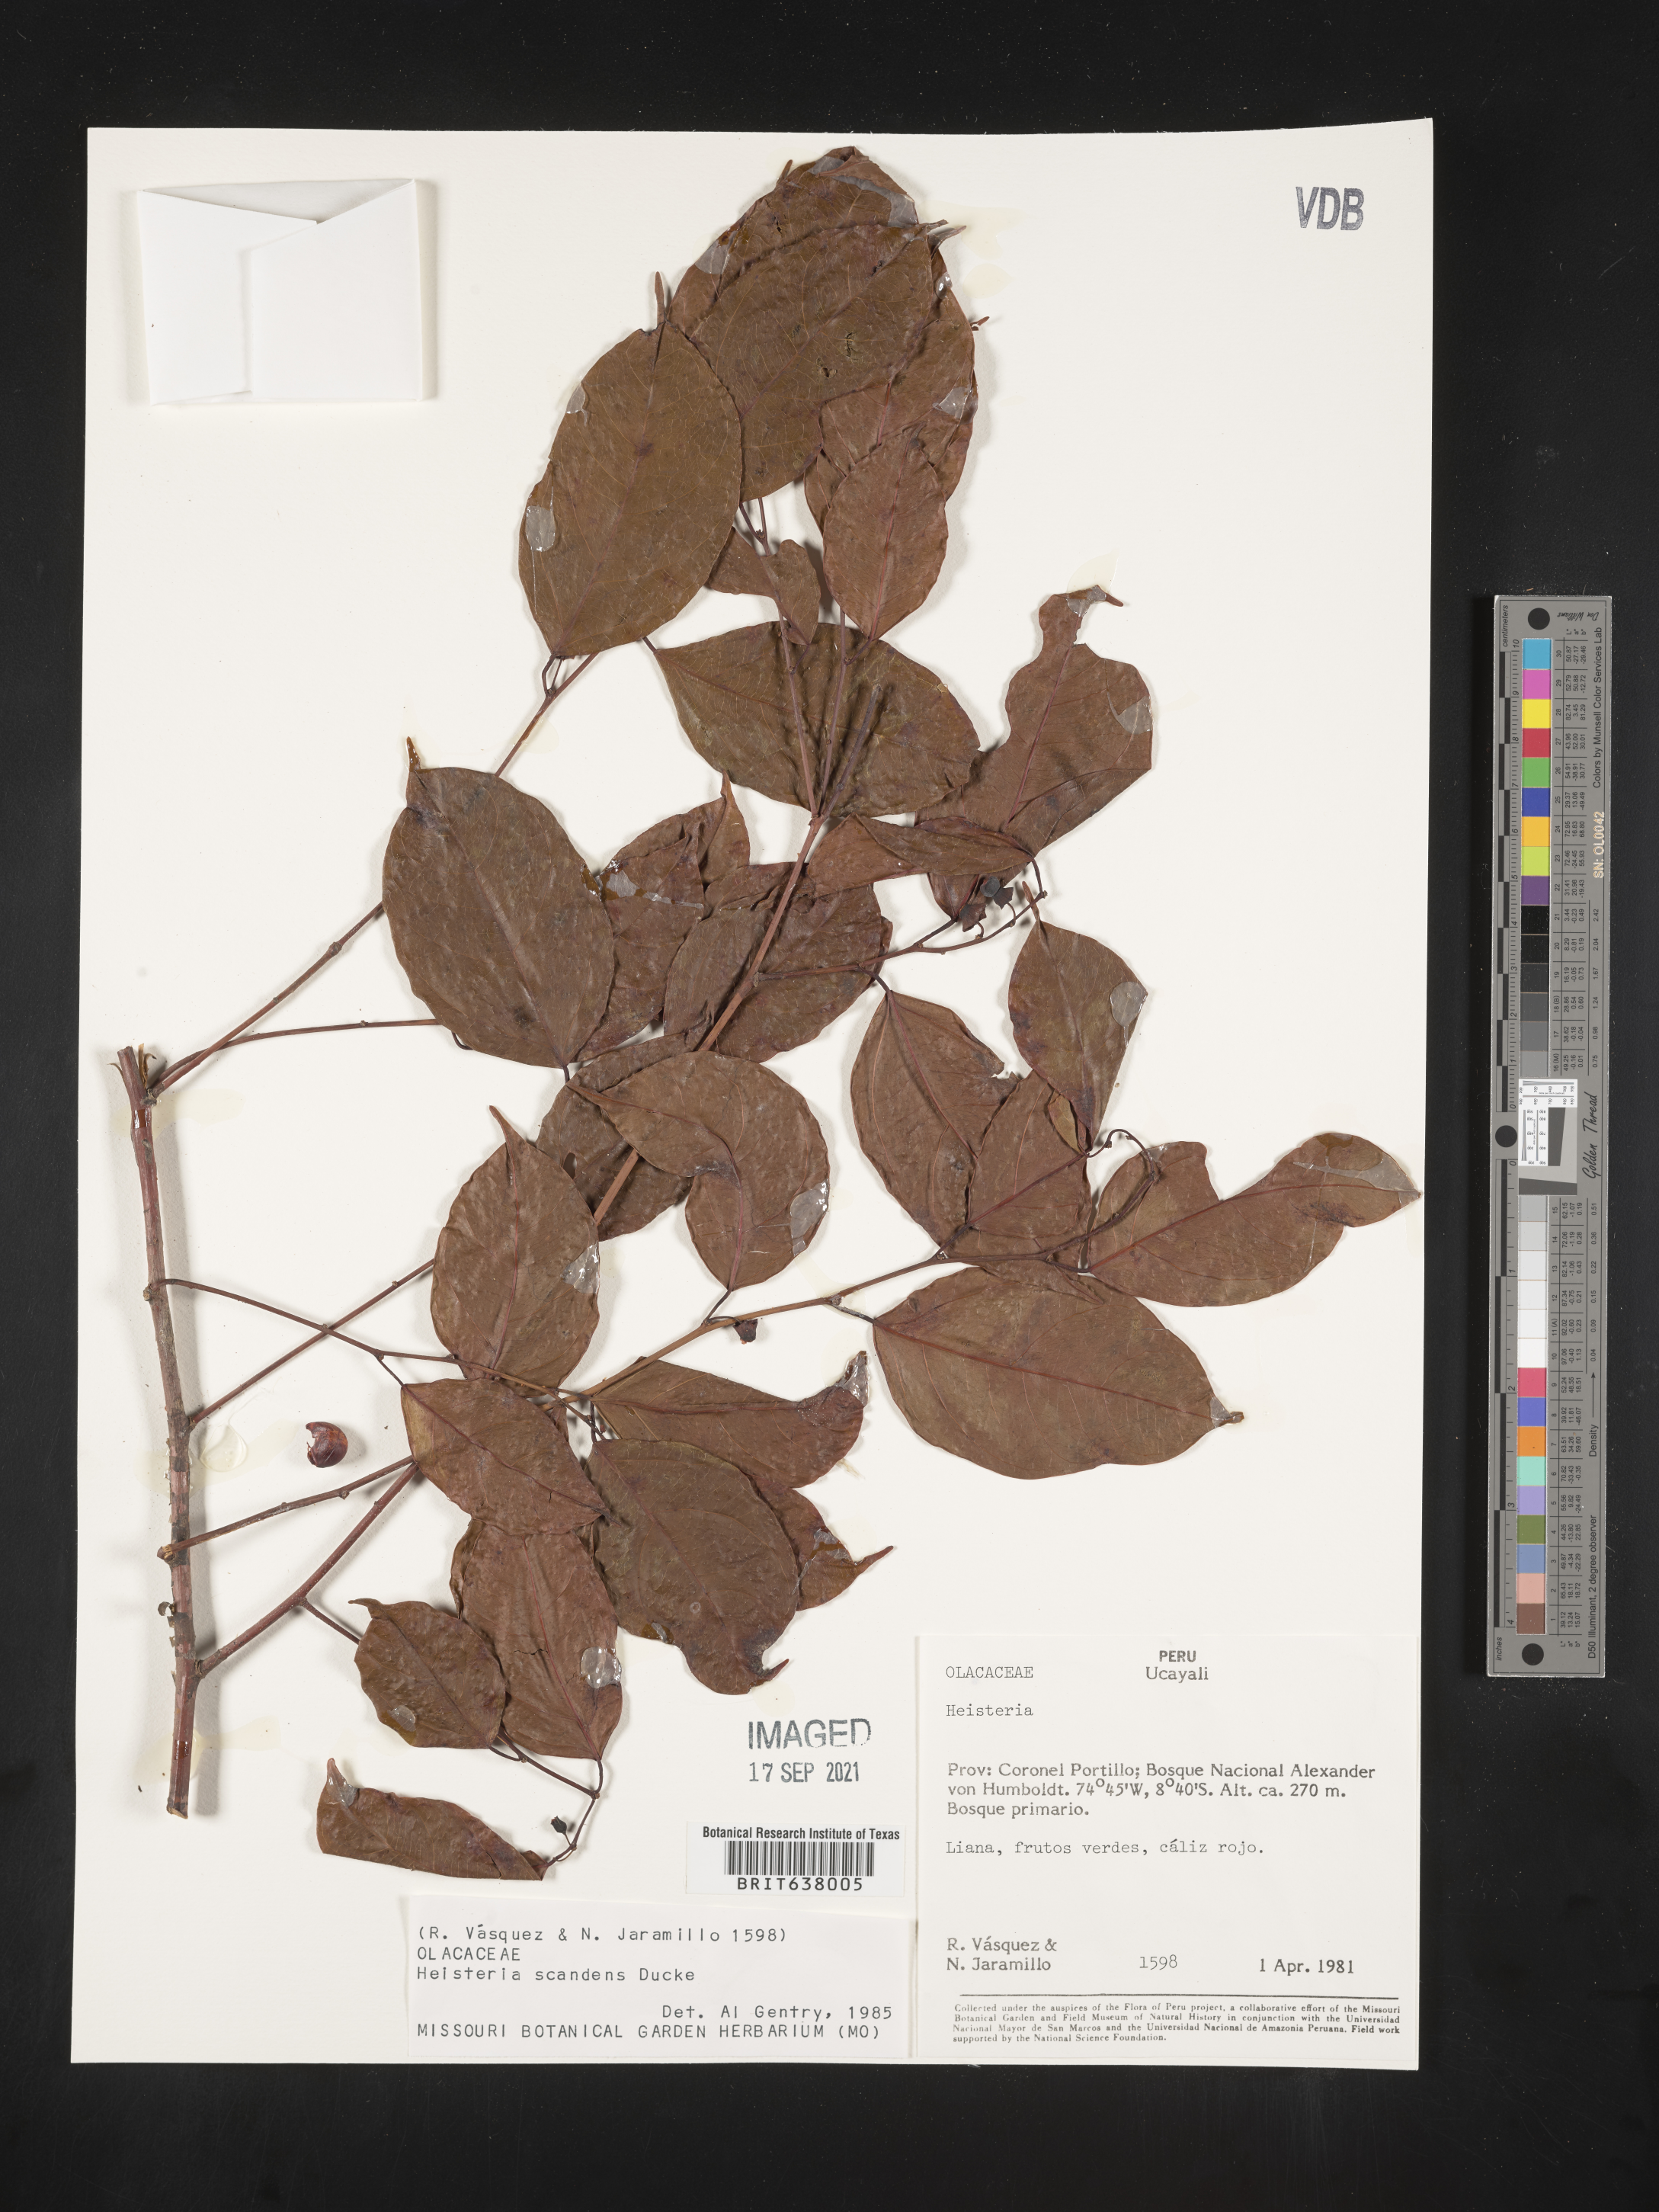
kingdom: Plantae
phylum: Tracheophyta
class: Magnoliopsida
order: Santalales
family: Erythropalaceae
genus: Heisteria
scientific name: Heisteria
